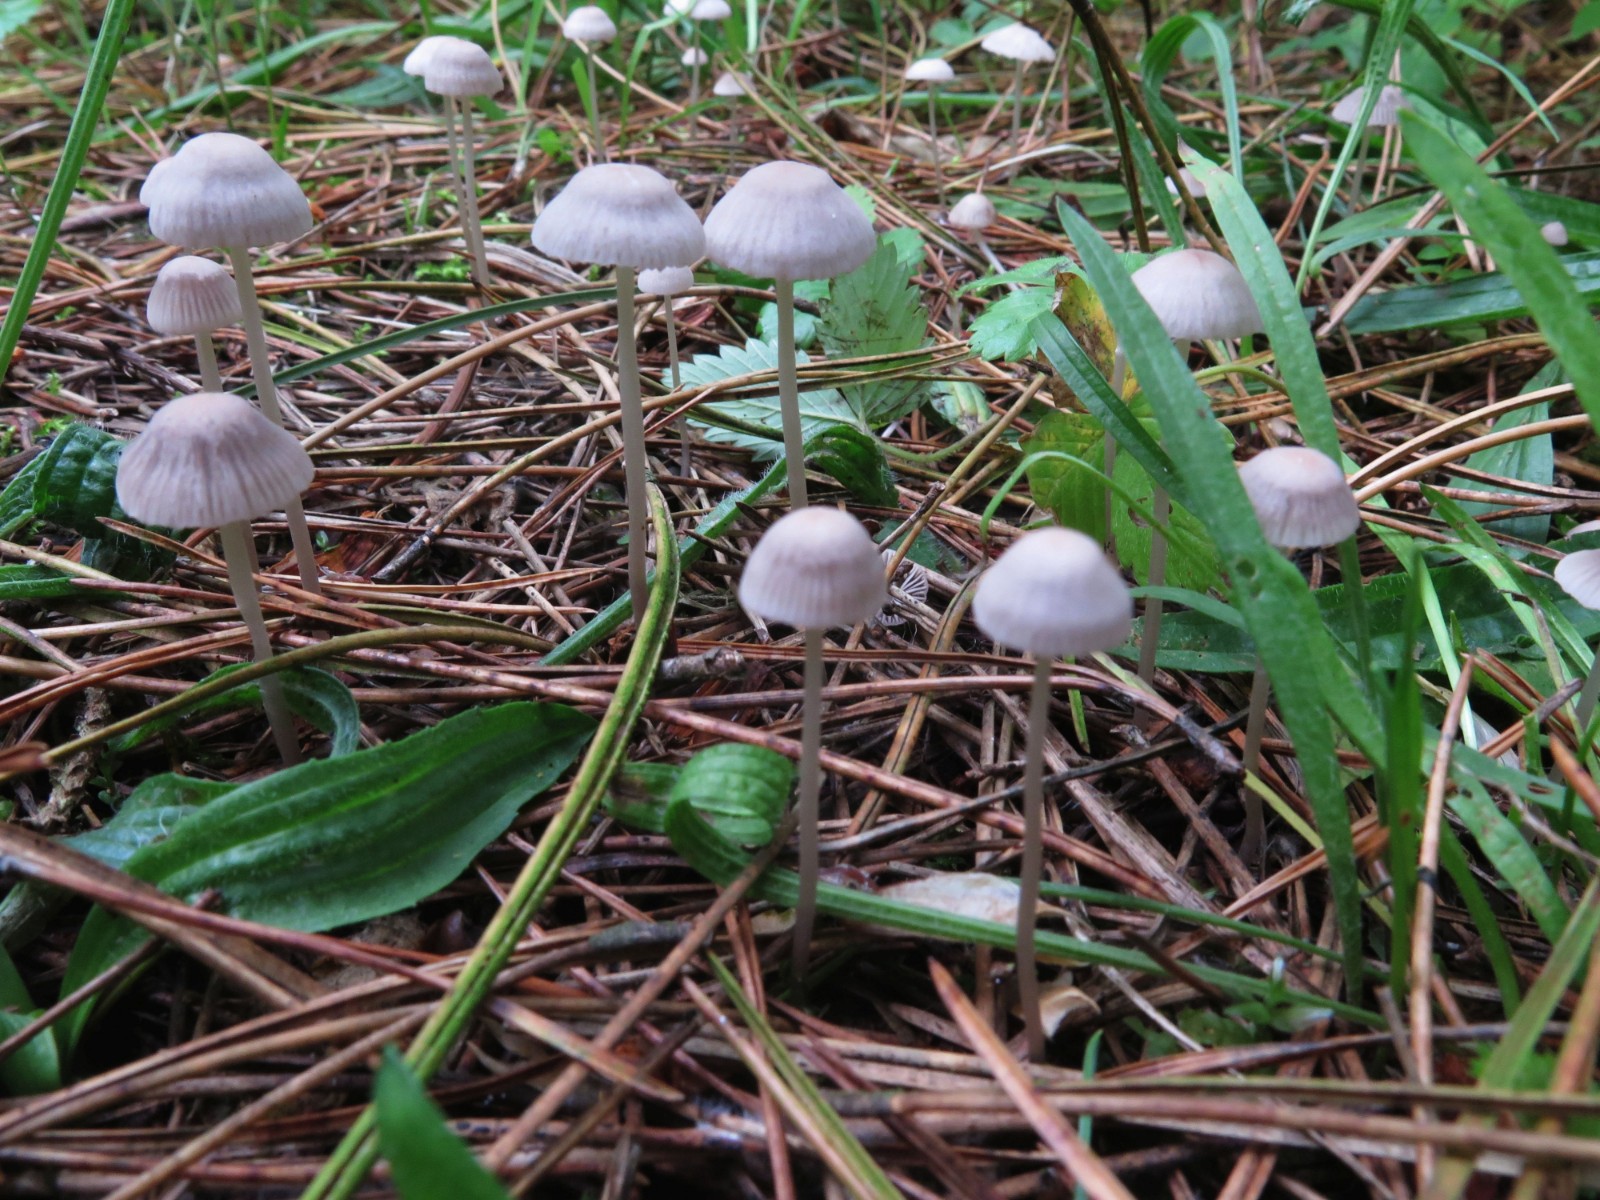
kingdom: Fungi
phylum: Basidiomycota
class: Agaricomycetes
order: Agaricales
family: Mycenaceae
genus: Mycena
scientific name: Mycena capillaripes
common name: nåle-huesvamp
